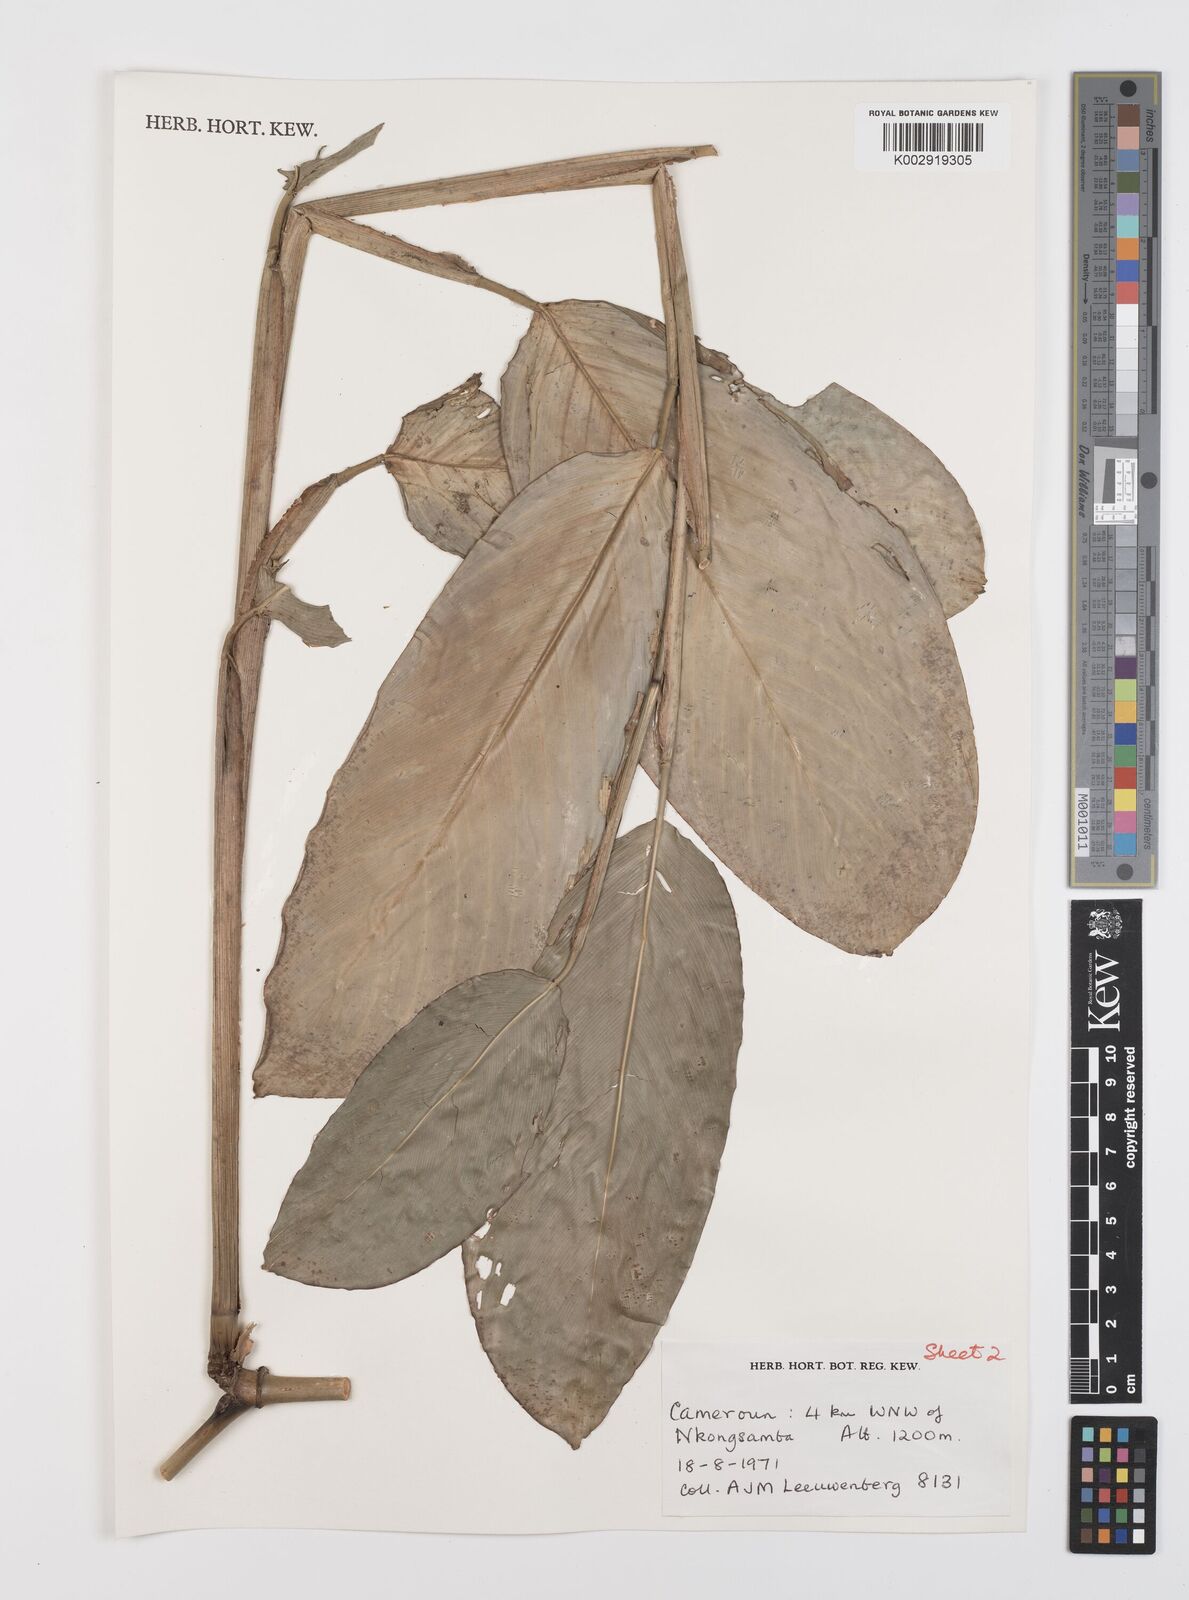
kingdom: Plantae
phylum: Tracheophyta
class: Liliopsida
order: Zingiberales
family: Marantaceae
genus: Hypselodelphys
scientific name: Hypselodelphys scandens
